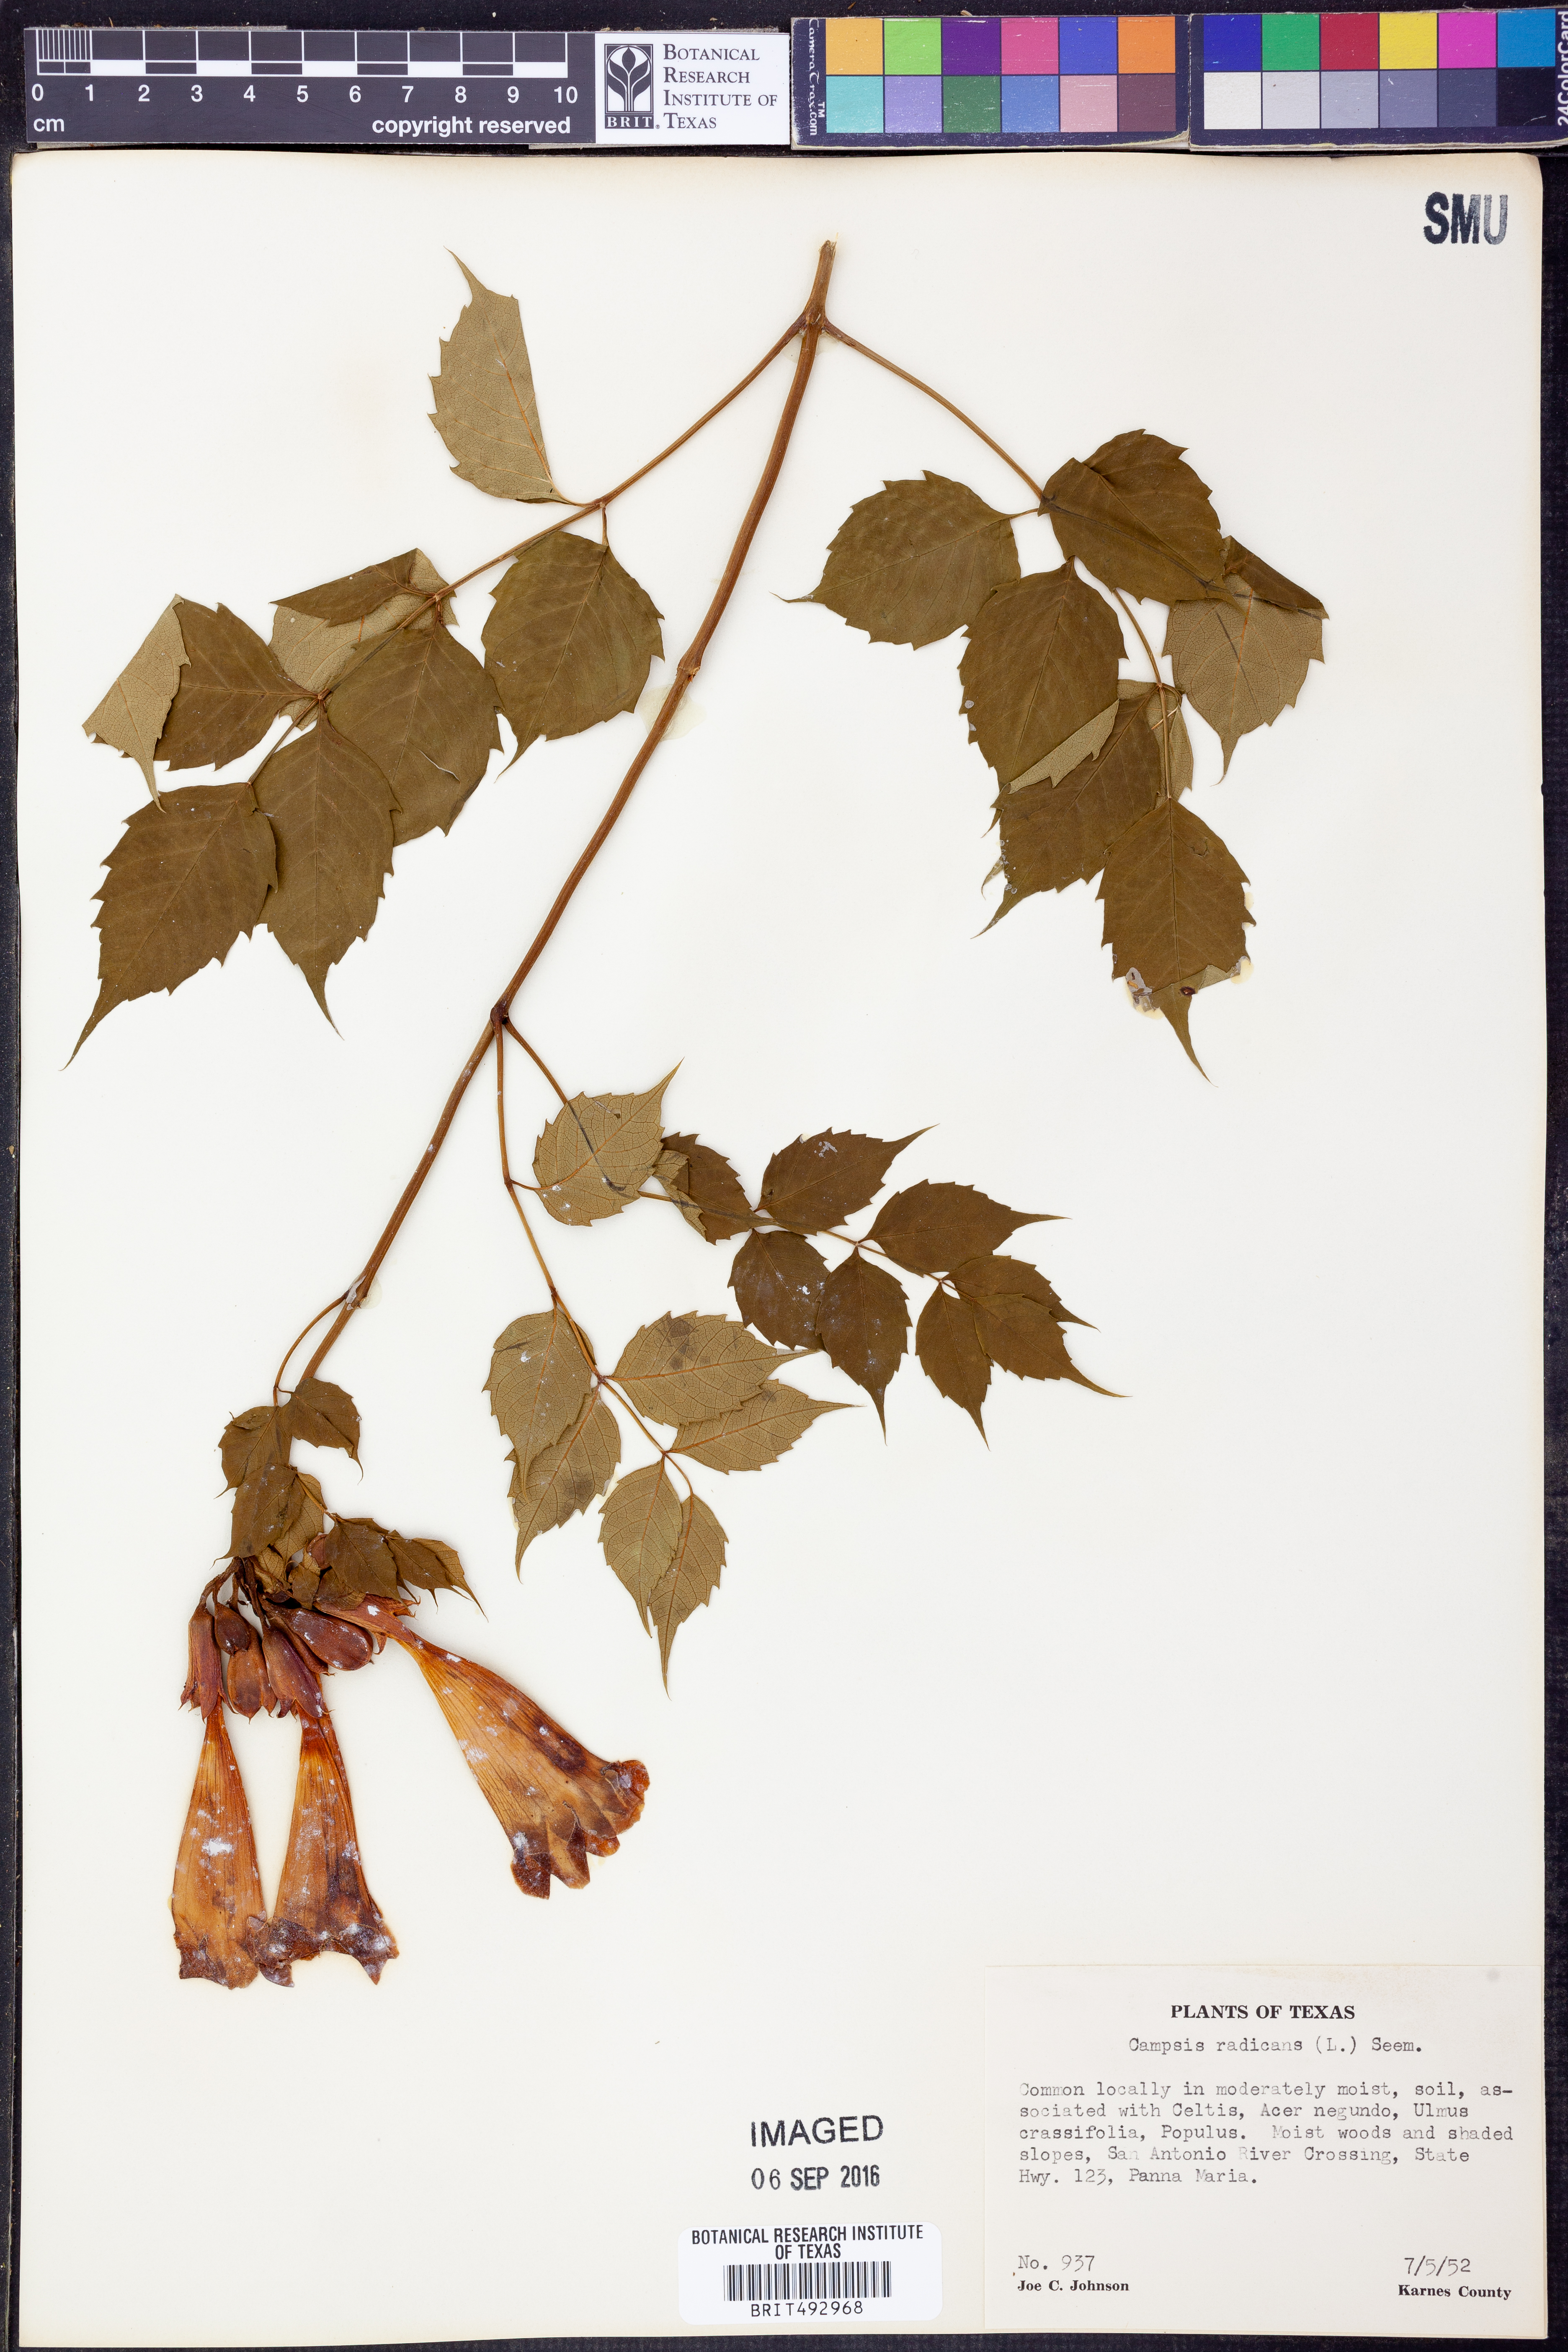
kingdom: Plantae
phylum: Tracheophyta
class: Magnoliopsida
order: Lamiales
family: Bignoniaceae
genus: Campsis
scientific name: Campsis radicans
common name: Trumpet-creeper
